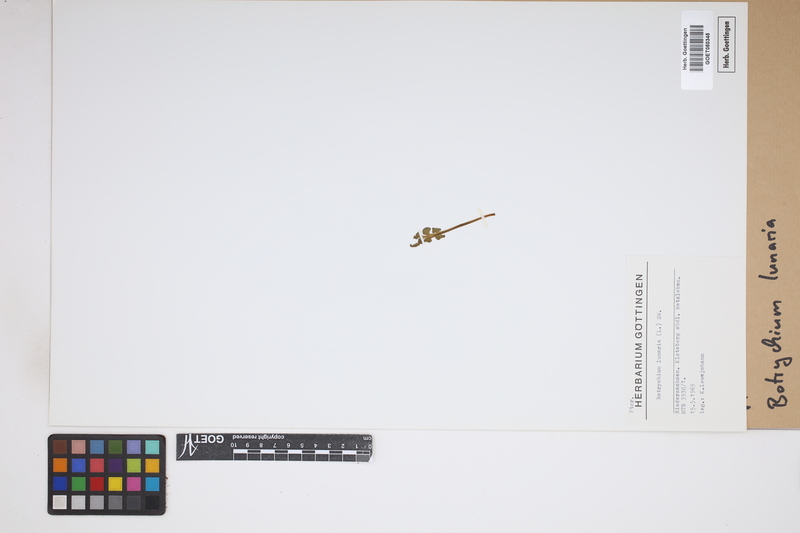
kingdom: Plantae
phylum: Tracheophyta
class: Polypodiopsida
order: Ophioglossales
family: Ophioglossaceae
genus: Botrychium
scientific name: Botrychium lunaria
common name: Moonwort
